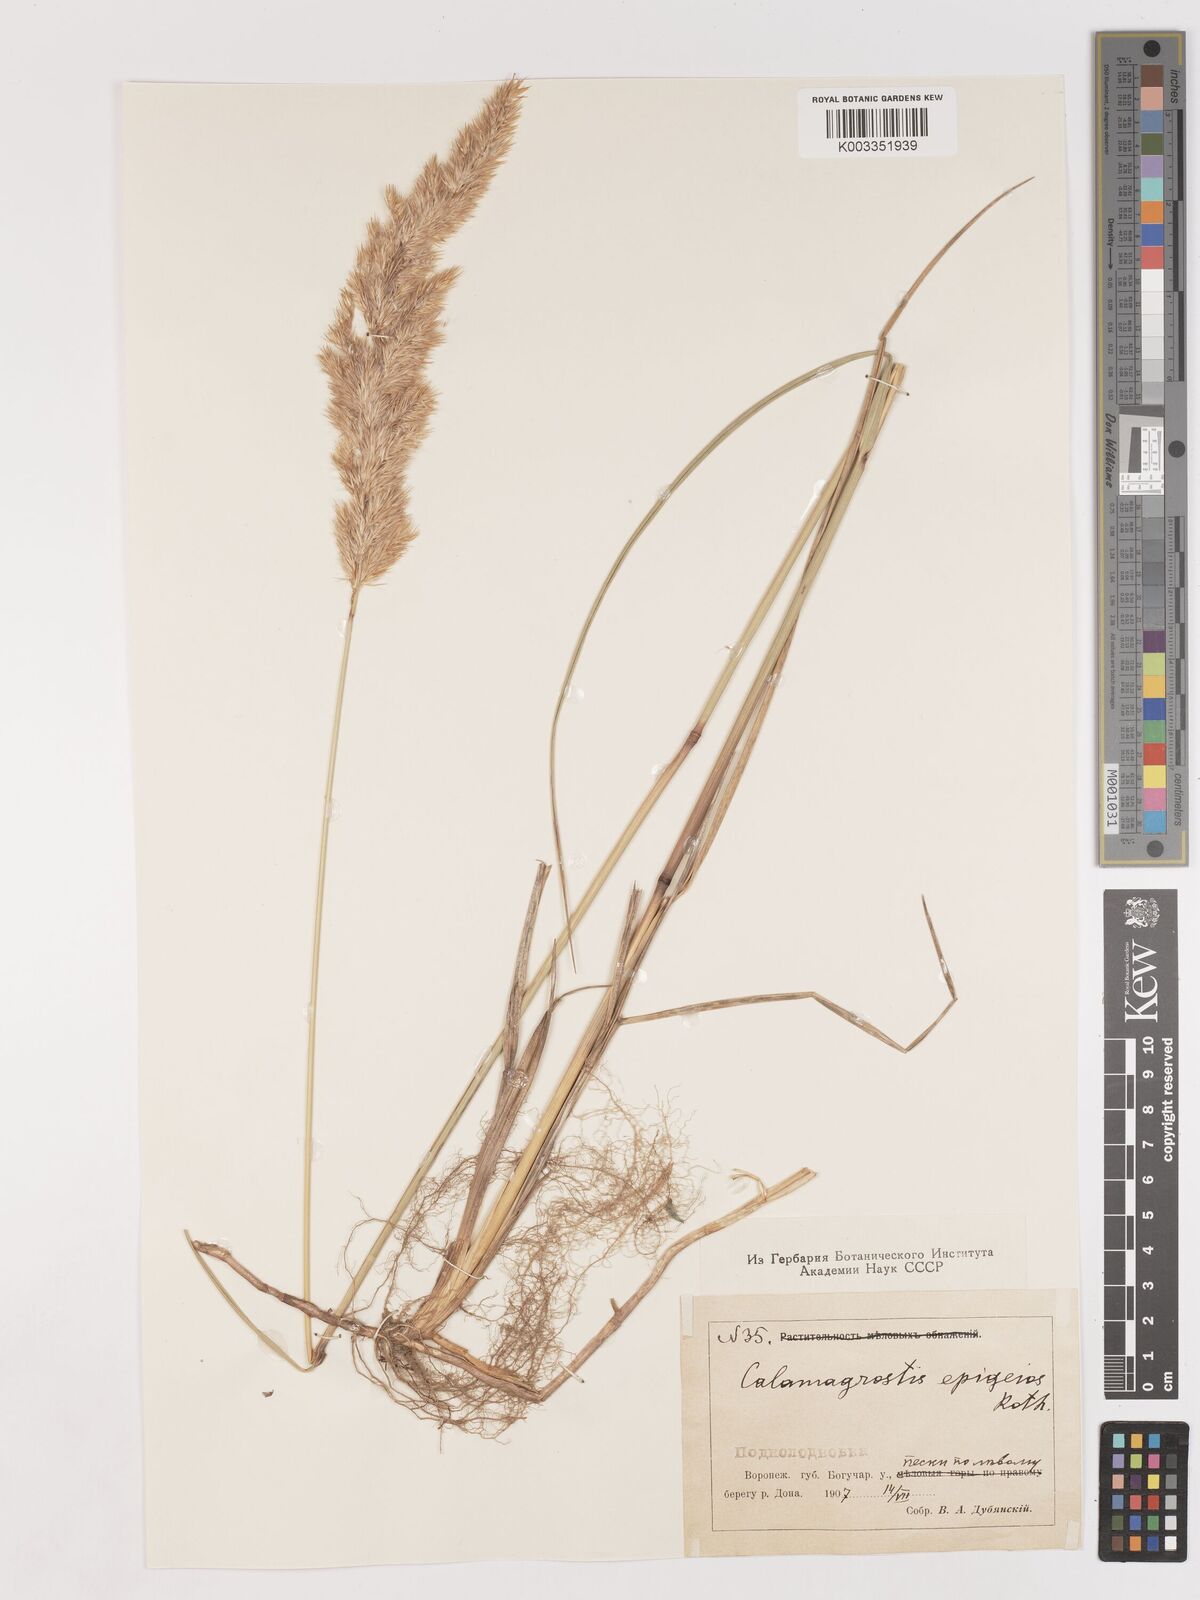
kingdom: Plantae
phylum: Tracheophyta
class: Liliopsida
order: Poales
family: Poaceae
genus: Calamagrostis
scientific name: Calamagrostis epigejos
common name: Wood small-reed
